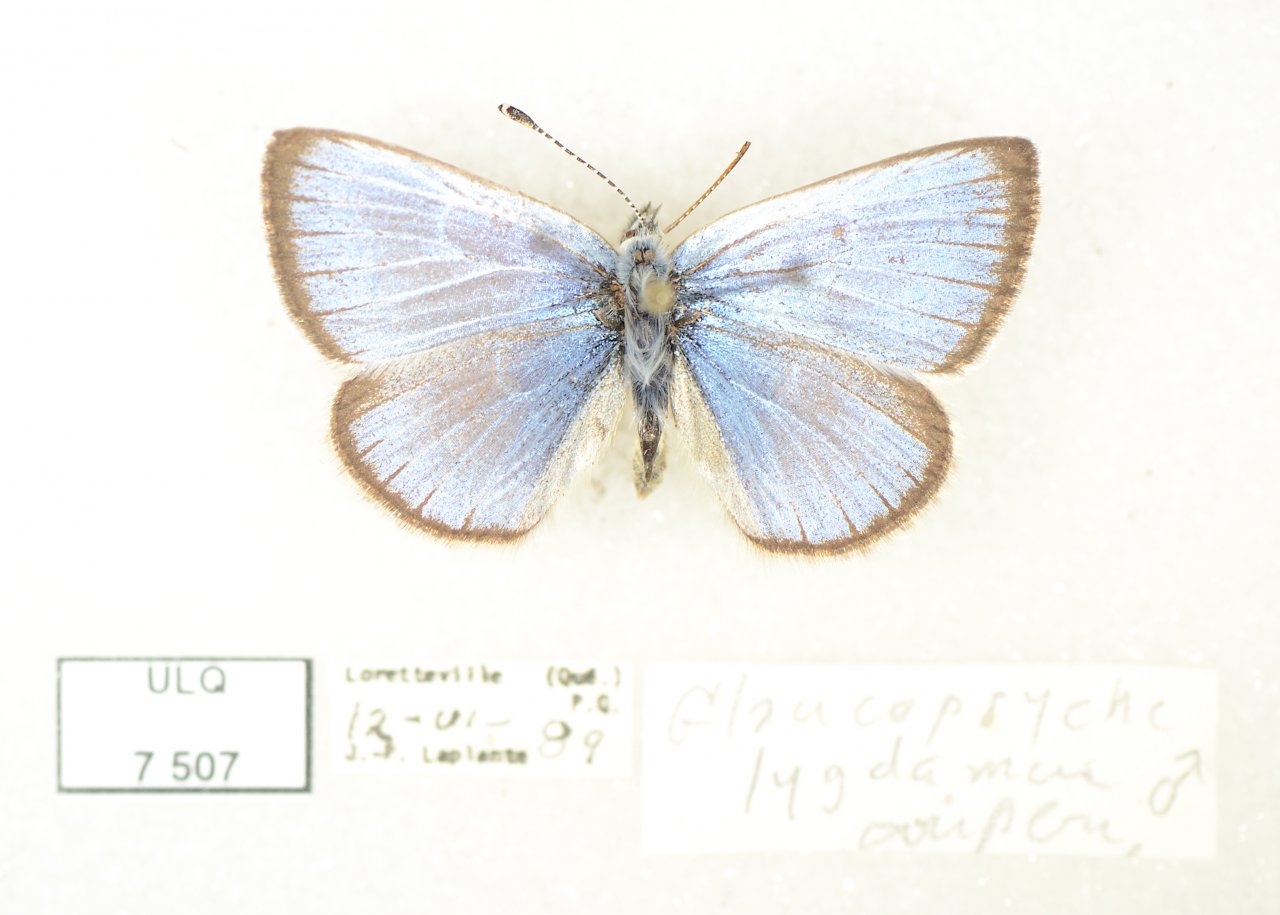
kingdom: Animalia
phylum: Arthropoda
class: Insecta
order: Lepidoptera
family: Lycaenidae
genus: Glaucopsyche
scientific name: Glaucopsyche lygdamus
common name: Silvery Blue
